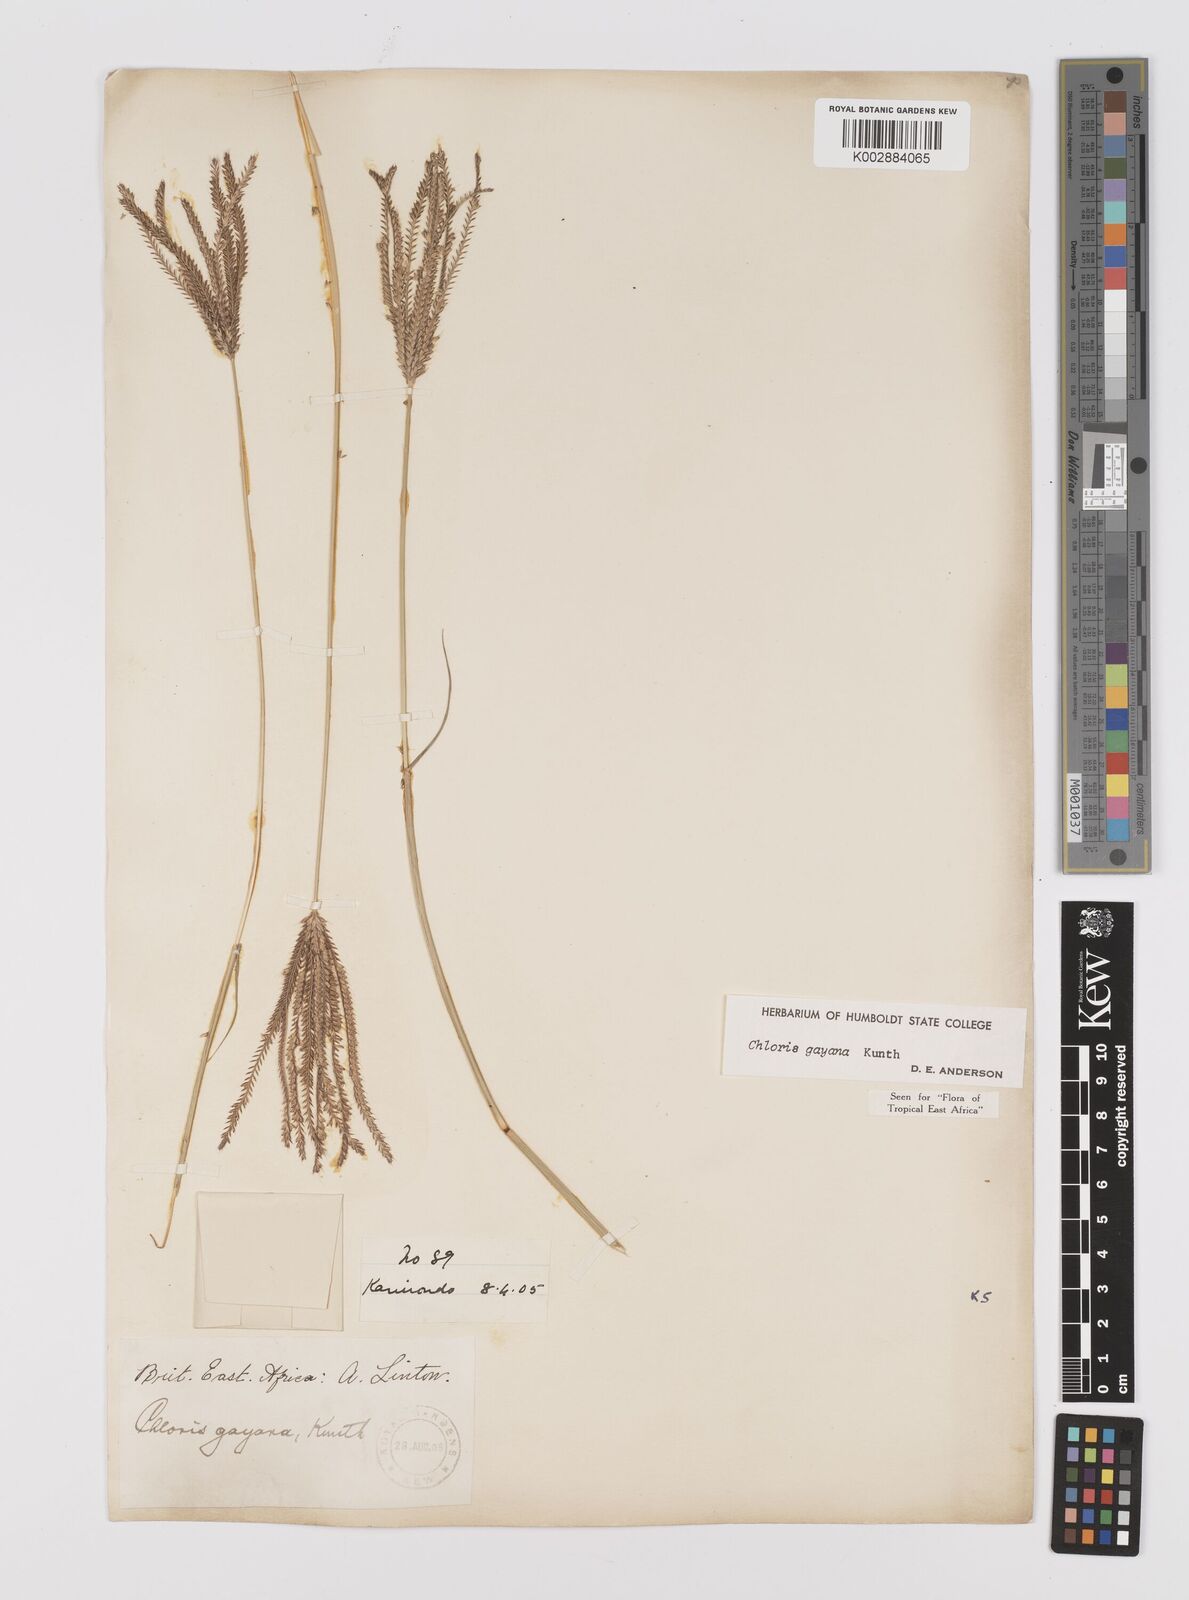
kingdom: Plantae
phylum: Tracheophyta
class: Liliopsida
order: Poales
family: Poaceae
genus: Chloris
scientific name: Chloris gayana
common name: Rhodes grass
